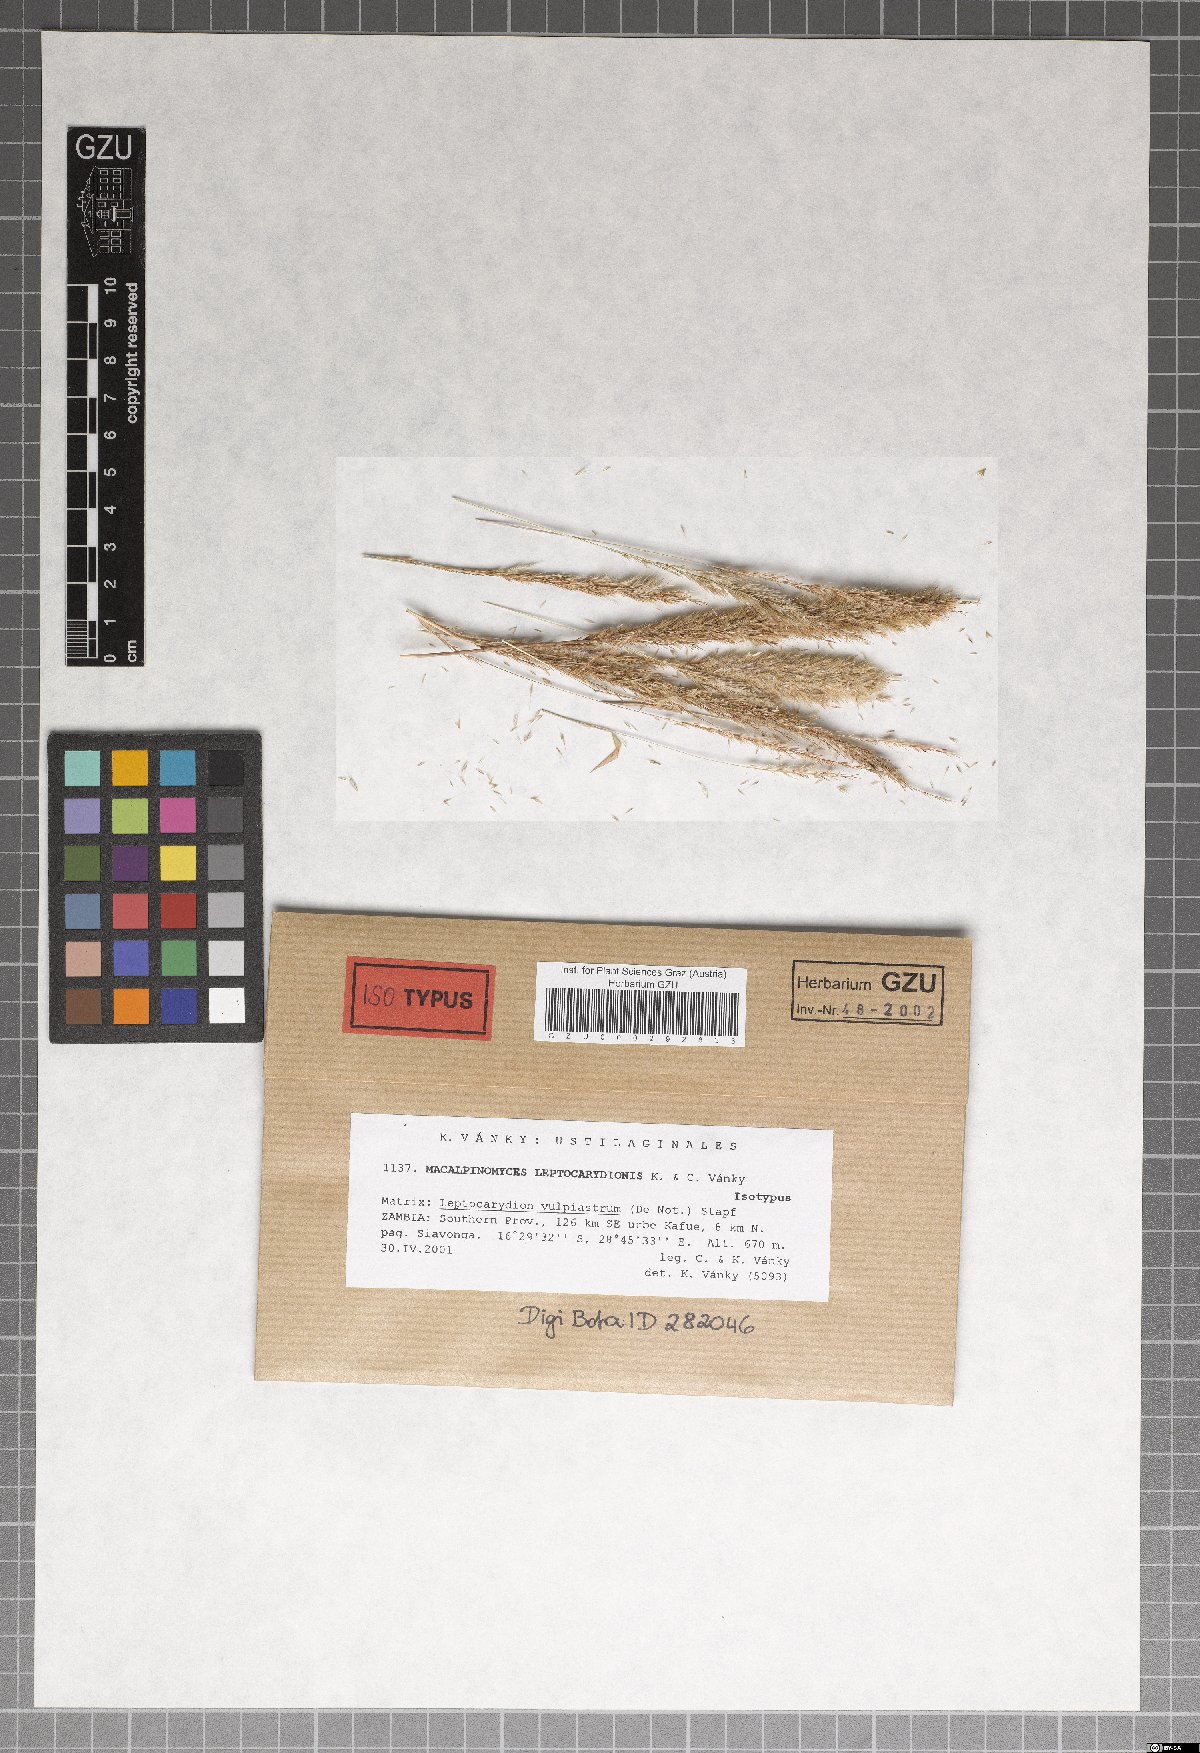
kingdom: Fungi
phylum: Basidiomycota
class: Ustilaginomycetes
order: Ustilaginales
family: Ustilaginaceae
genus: Macalpinomyces
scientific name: Macalpinomyces leptocarydionis
